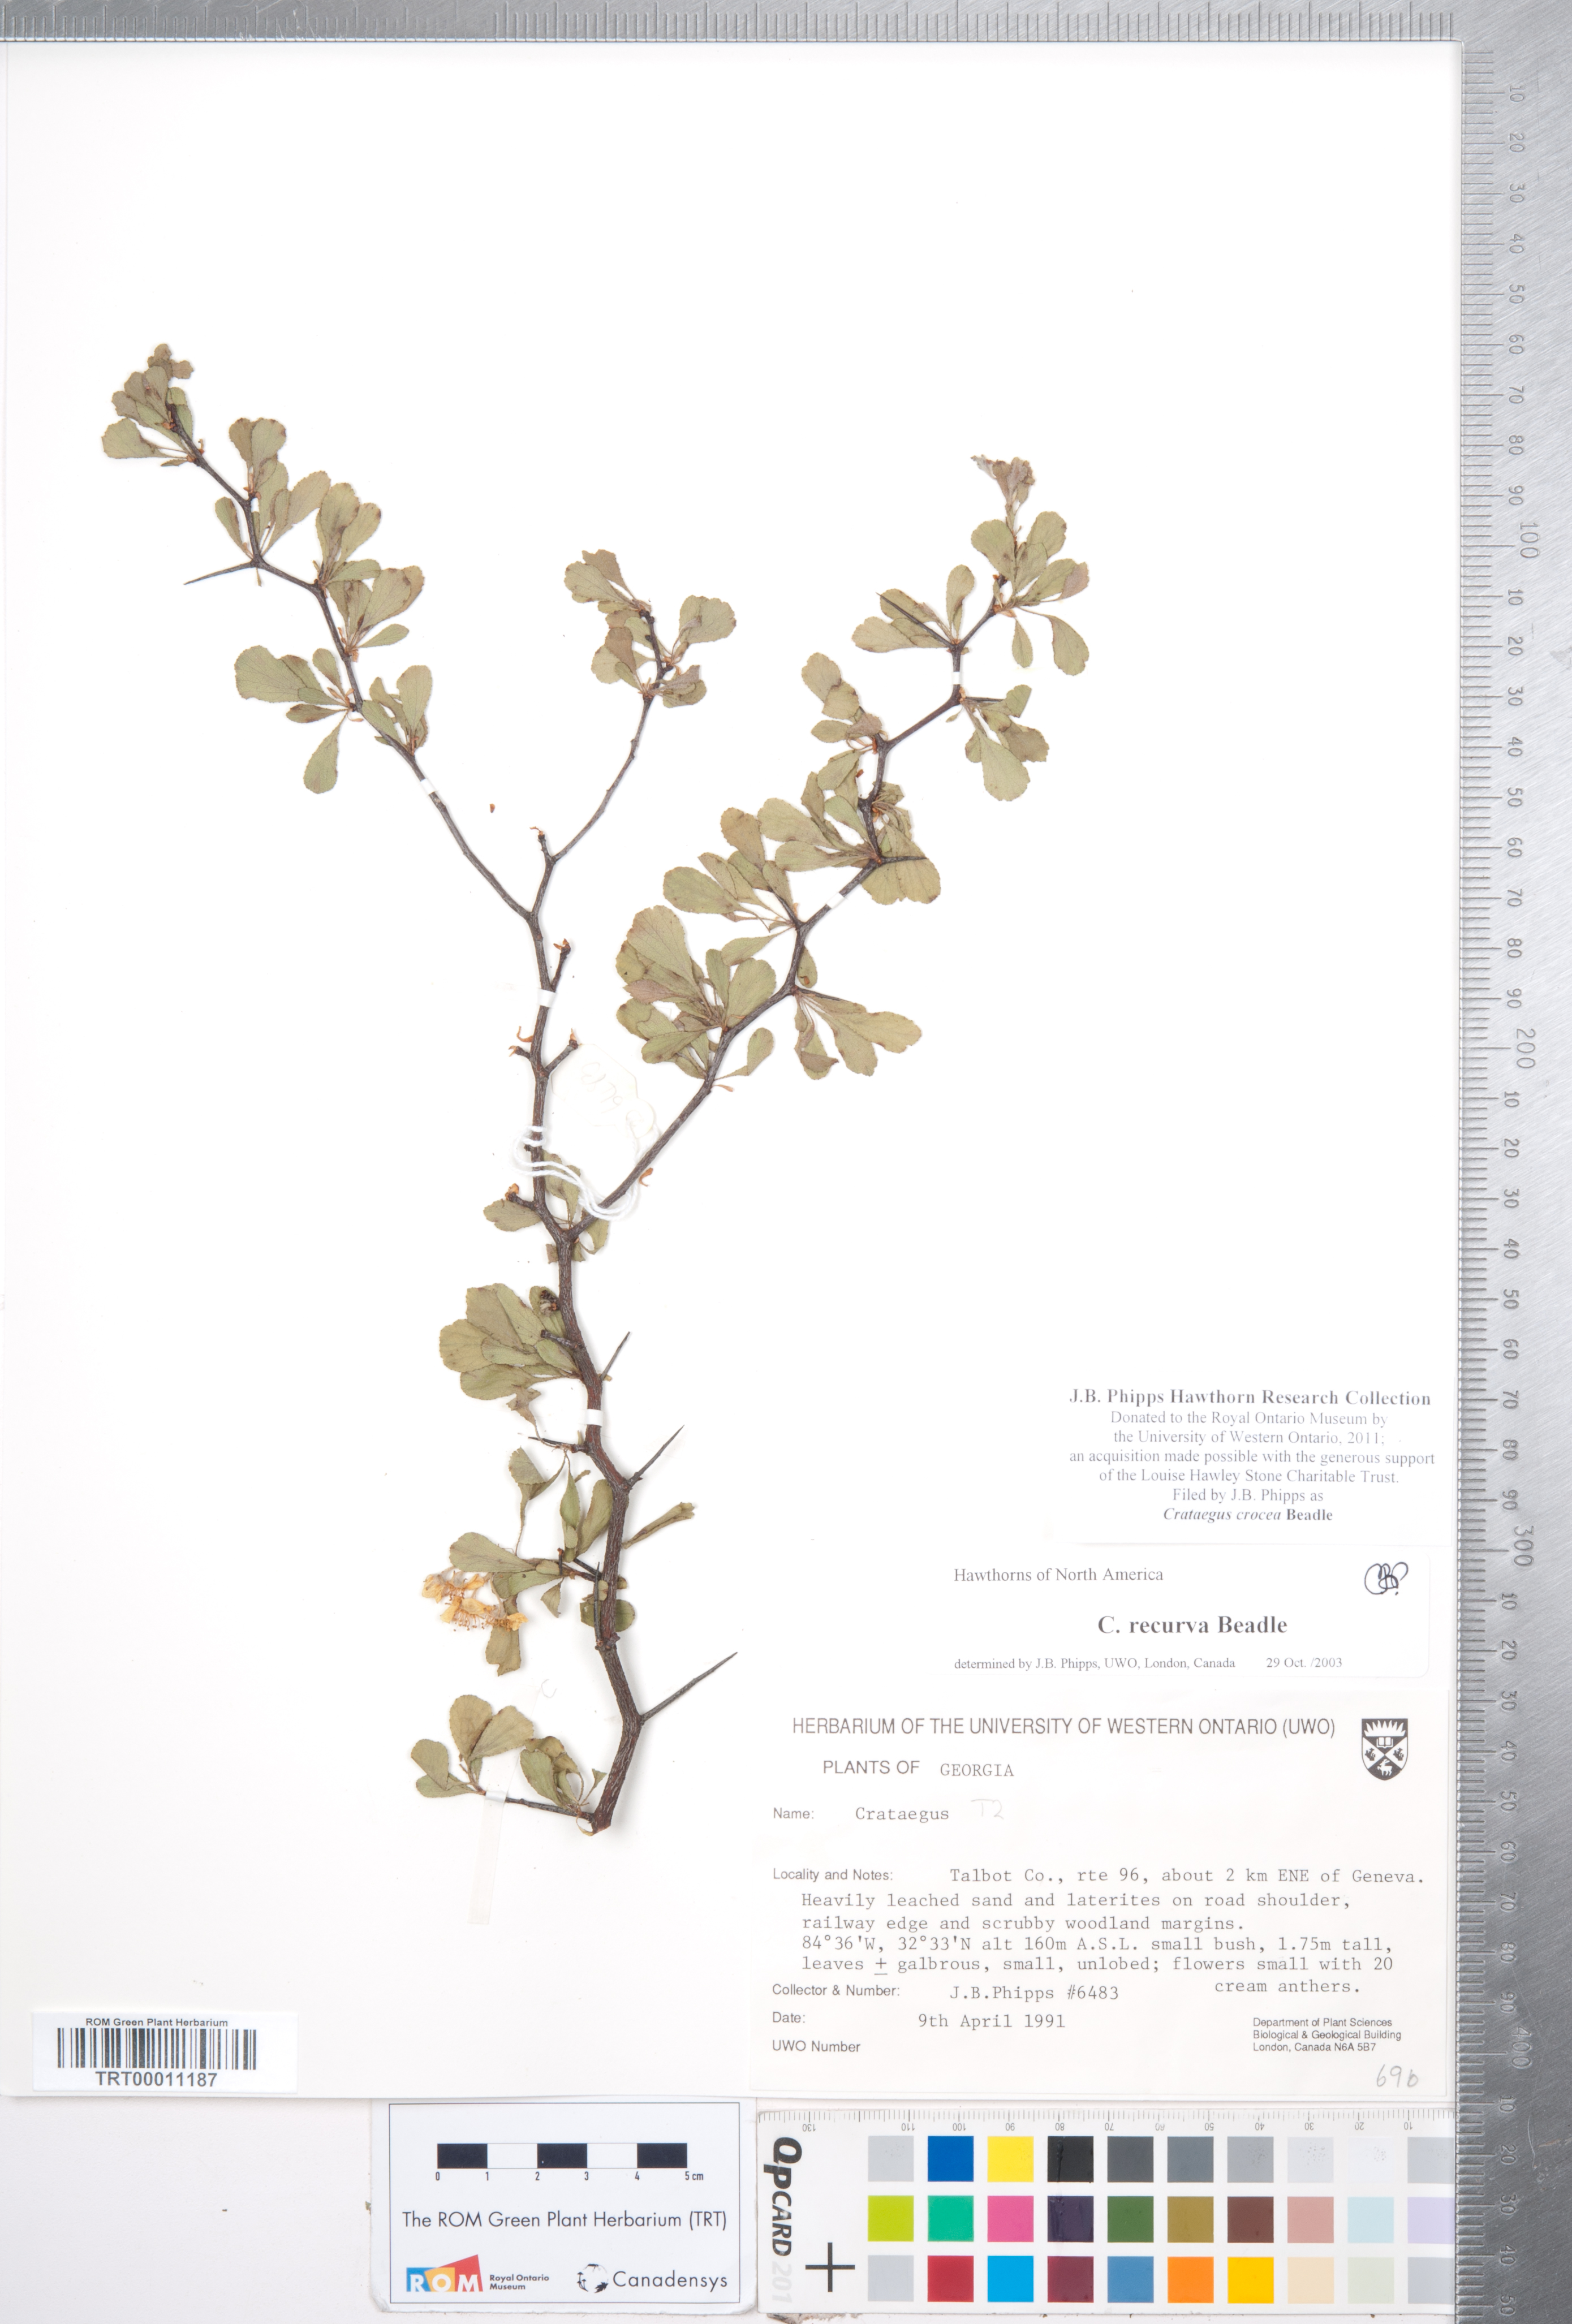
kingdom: Plantae
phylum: Tracheophyta
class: Magnoliopsida
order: Rosales
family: Rosaceae
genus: Crataegus
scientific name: Crataegus lassa
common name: Florida hawthorn
